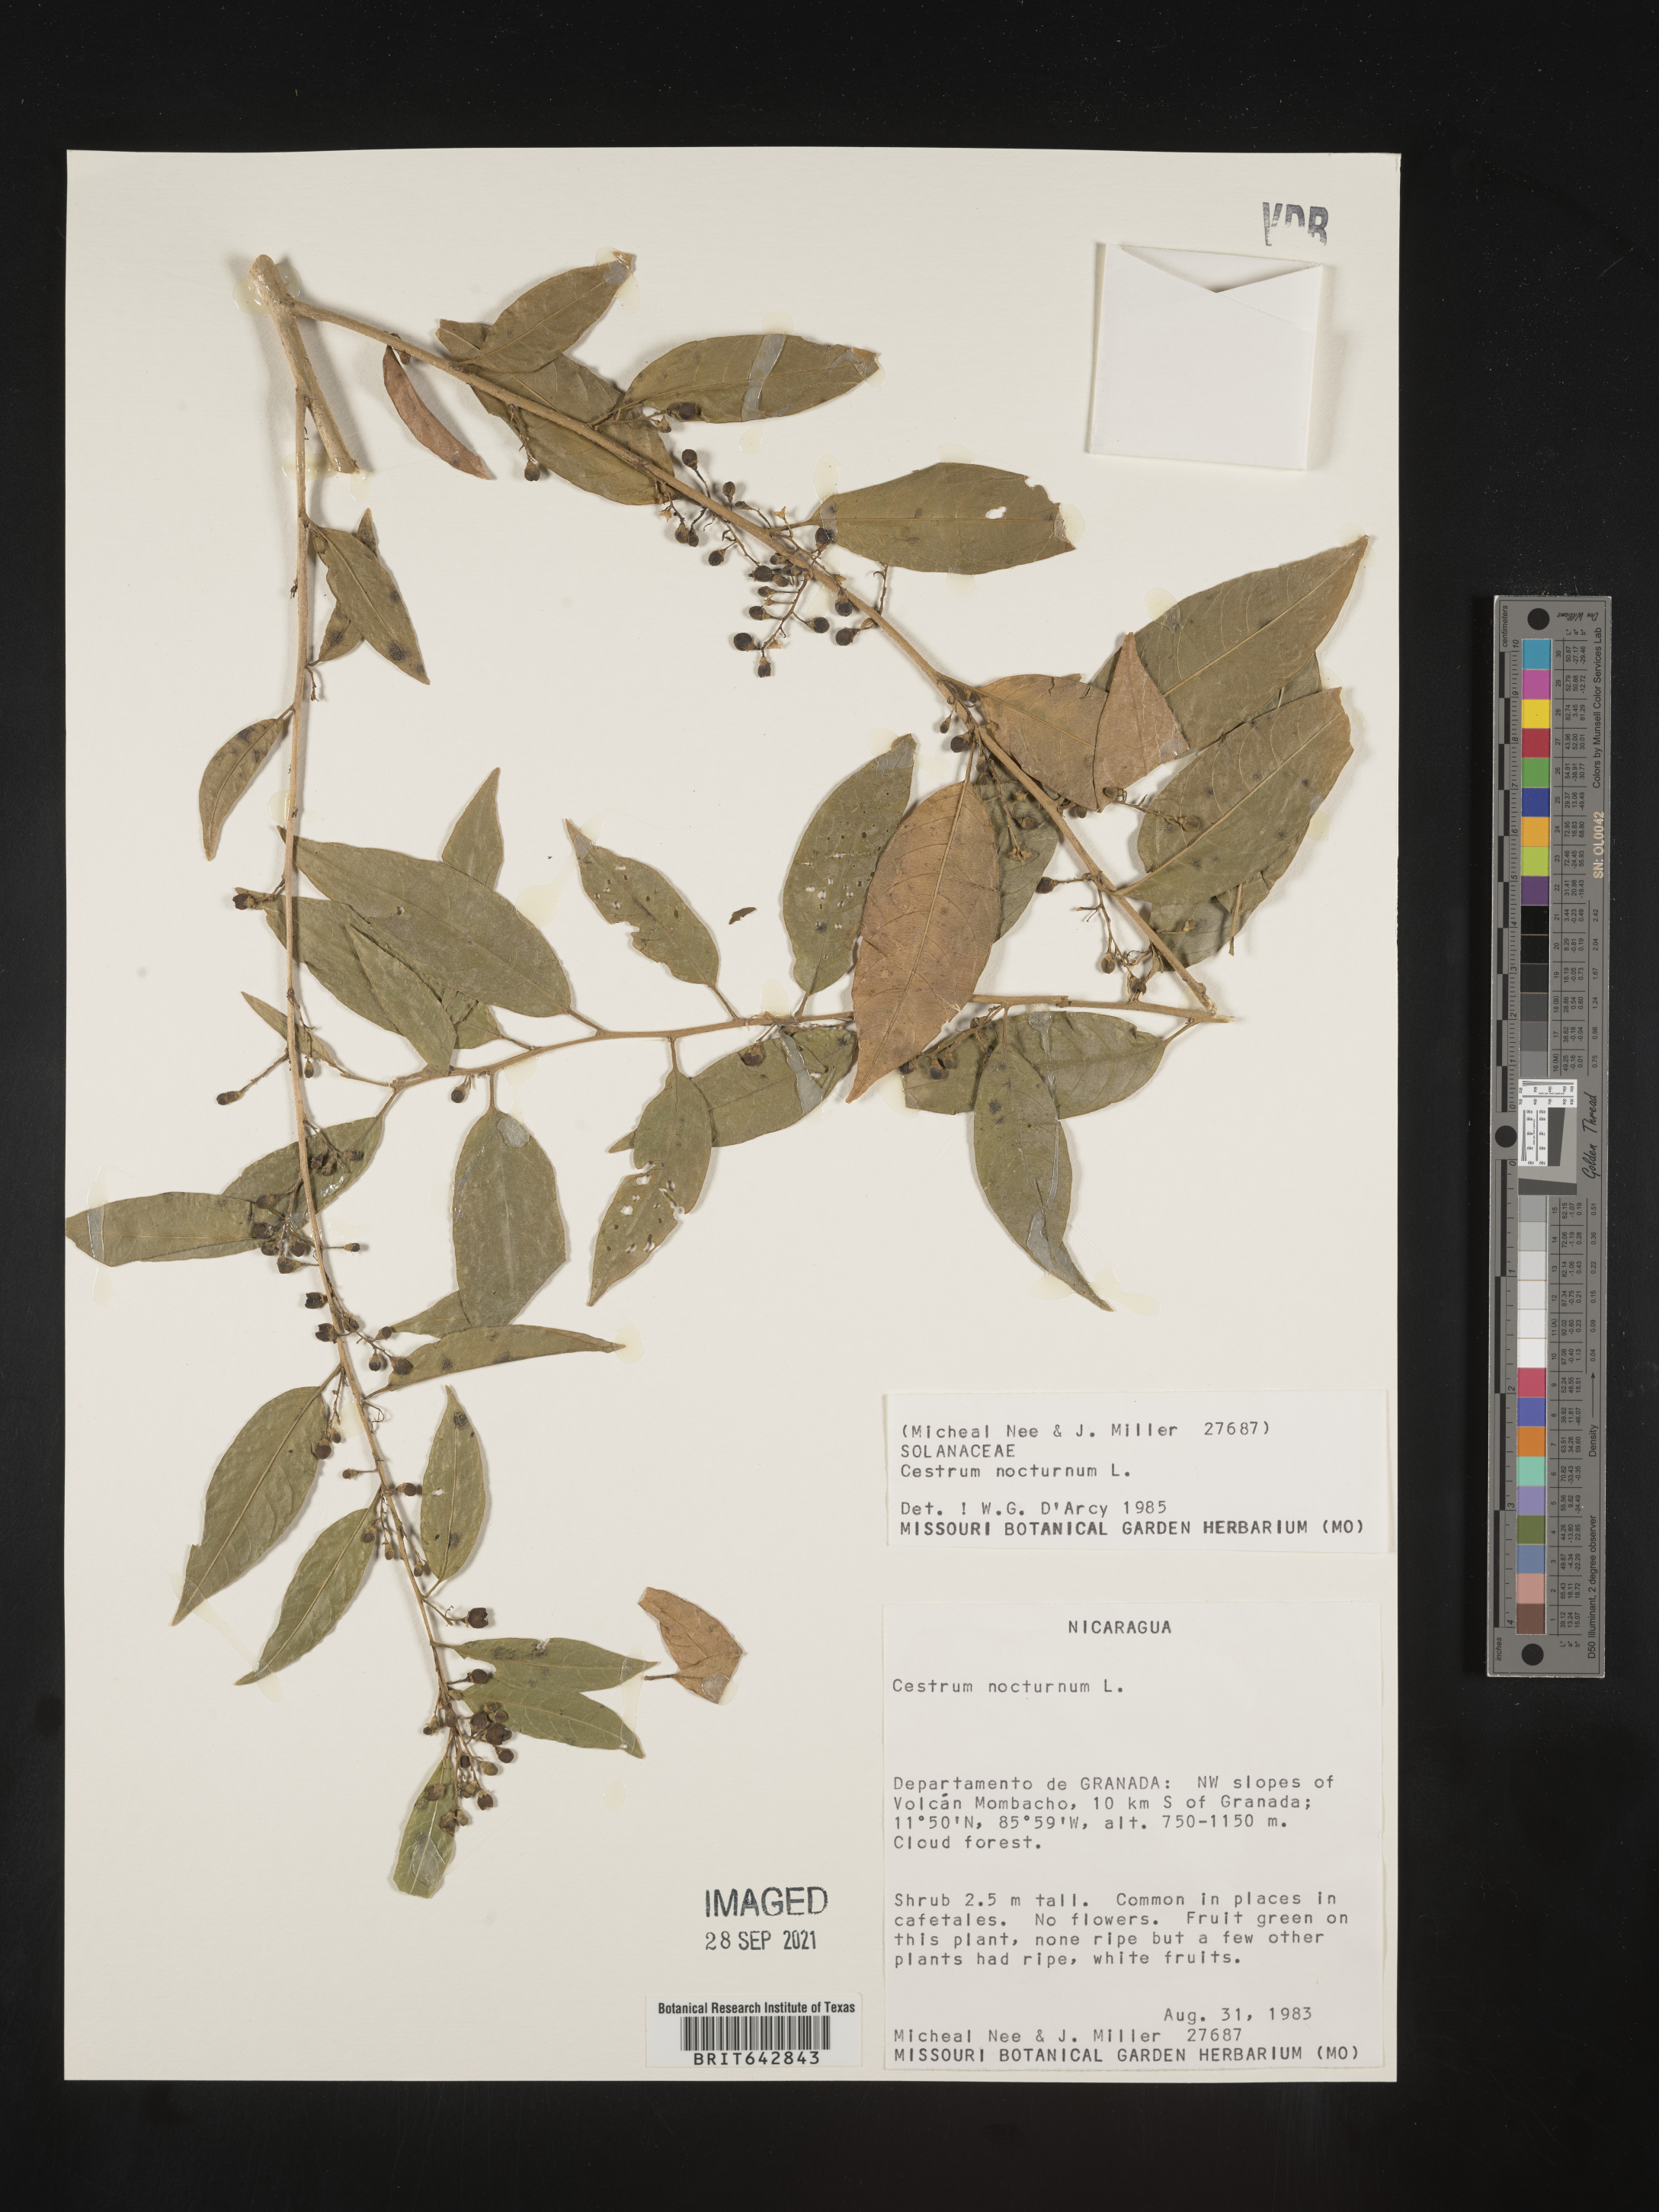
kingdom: Plantae
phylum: Tracheophyta
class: Magnoliopsida
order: Solanales
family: Solanaceae
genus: Cestrum
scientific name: Cestrum
